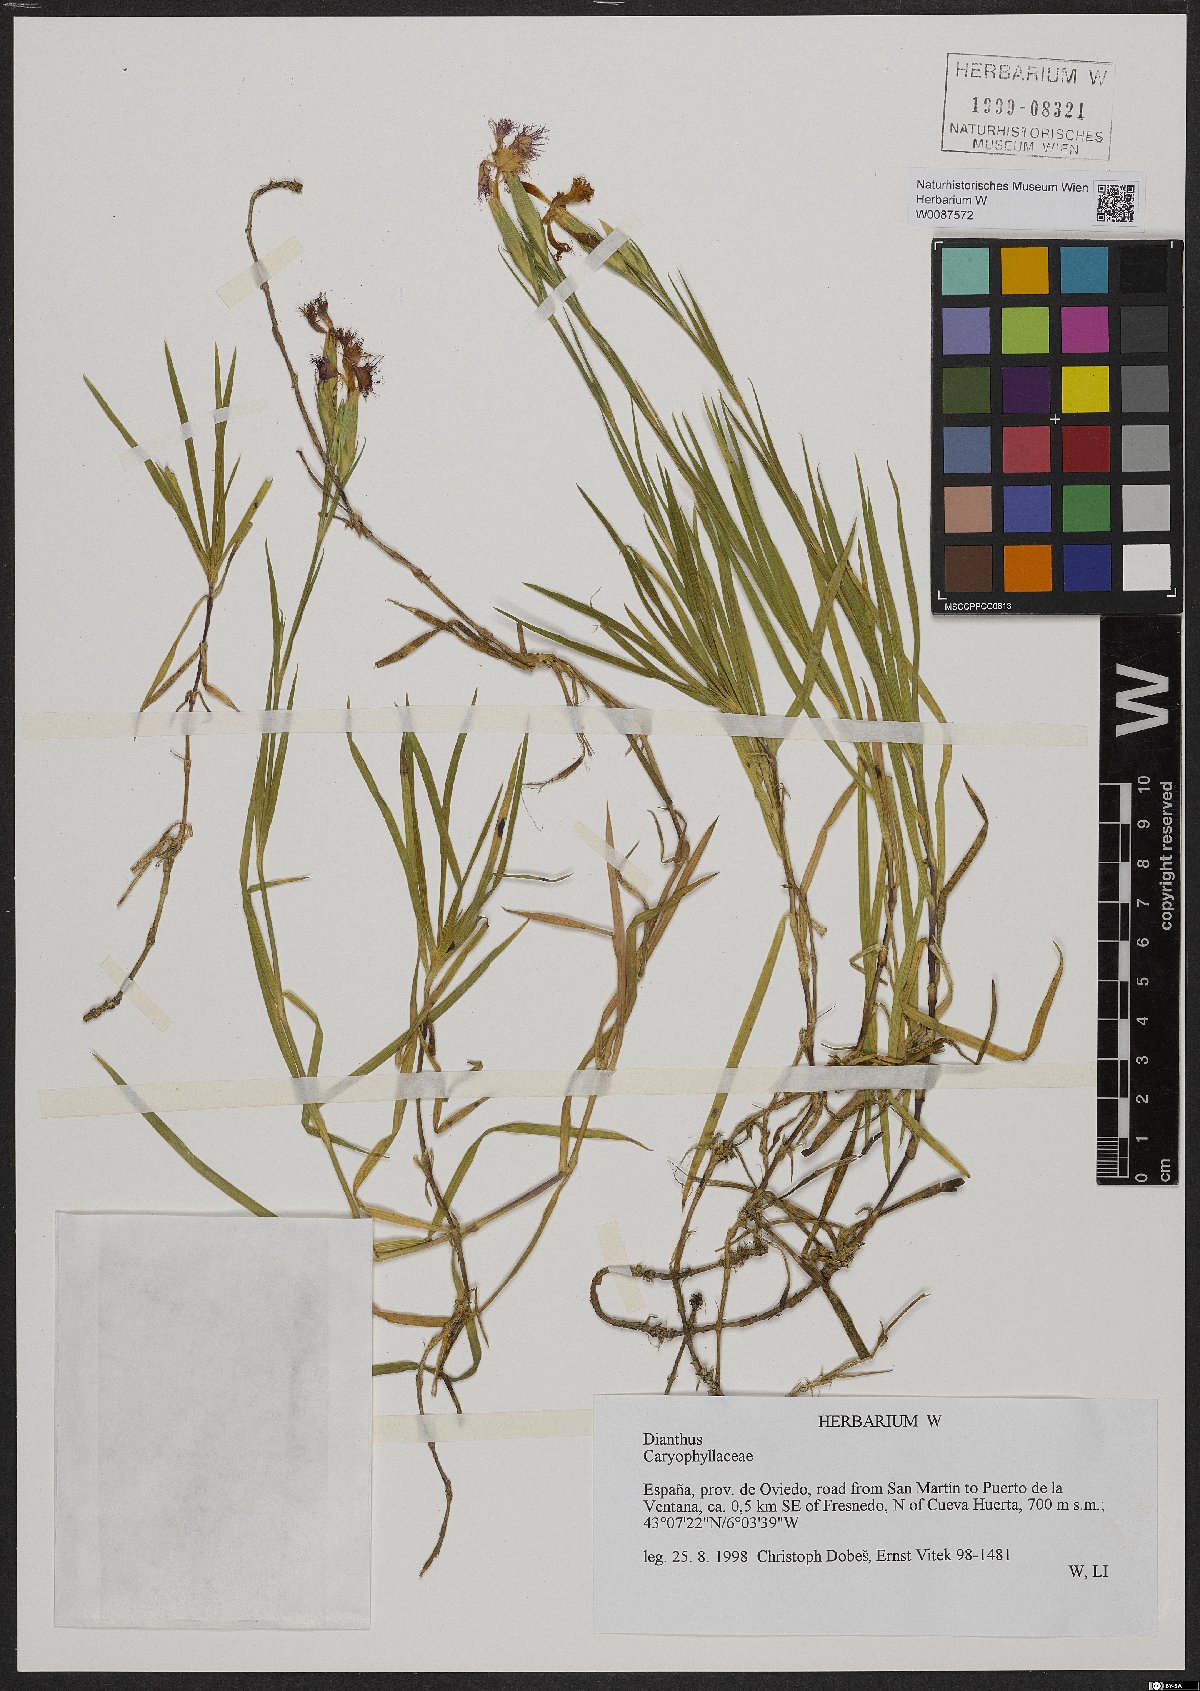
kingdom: Plantae
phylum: Tracheophyta
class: Magnoliopsida
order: Caryophyllales
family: Caryophyllaceae
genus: Dianthus
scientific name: Dianthus
